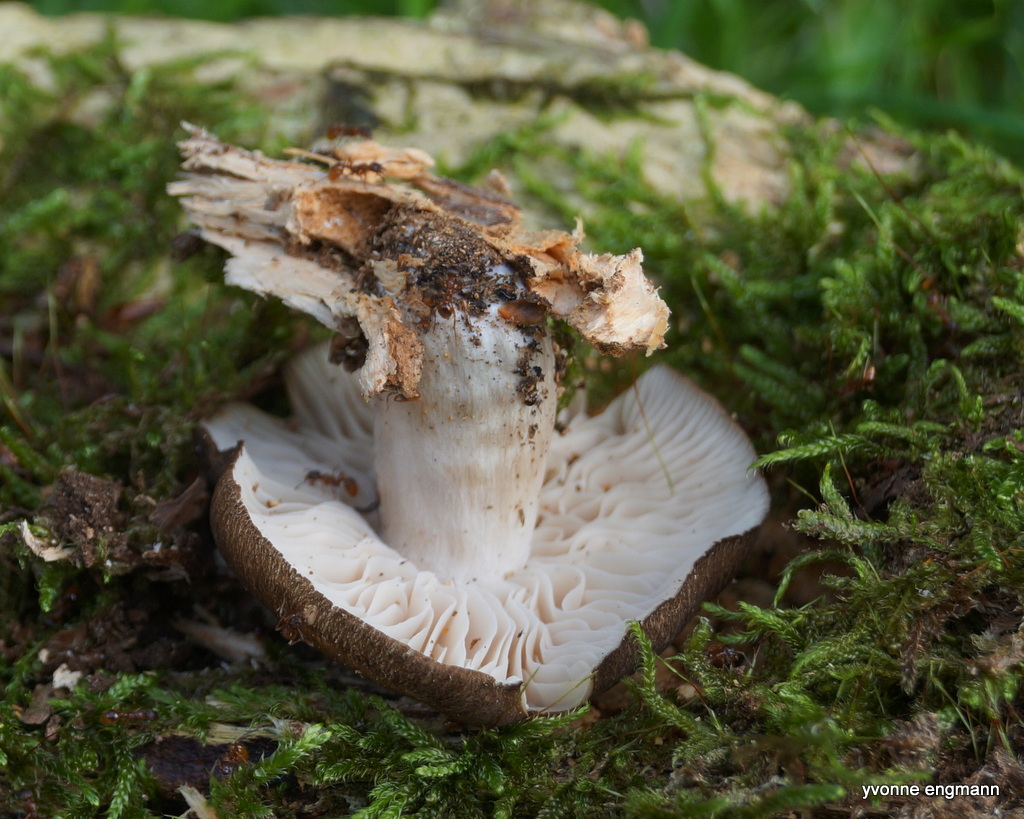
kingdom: Fungi
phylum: Basidiomycota
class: Agaricomycetes
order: Agaricales
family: Tricholomataceae
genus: Megacollybia
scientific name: Megacollybia platyphylla
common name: bredbladet væbnerhat
